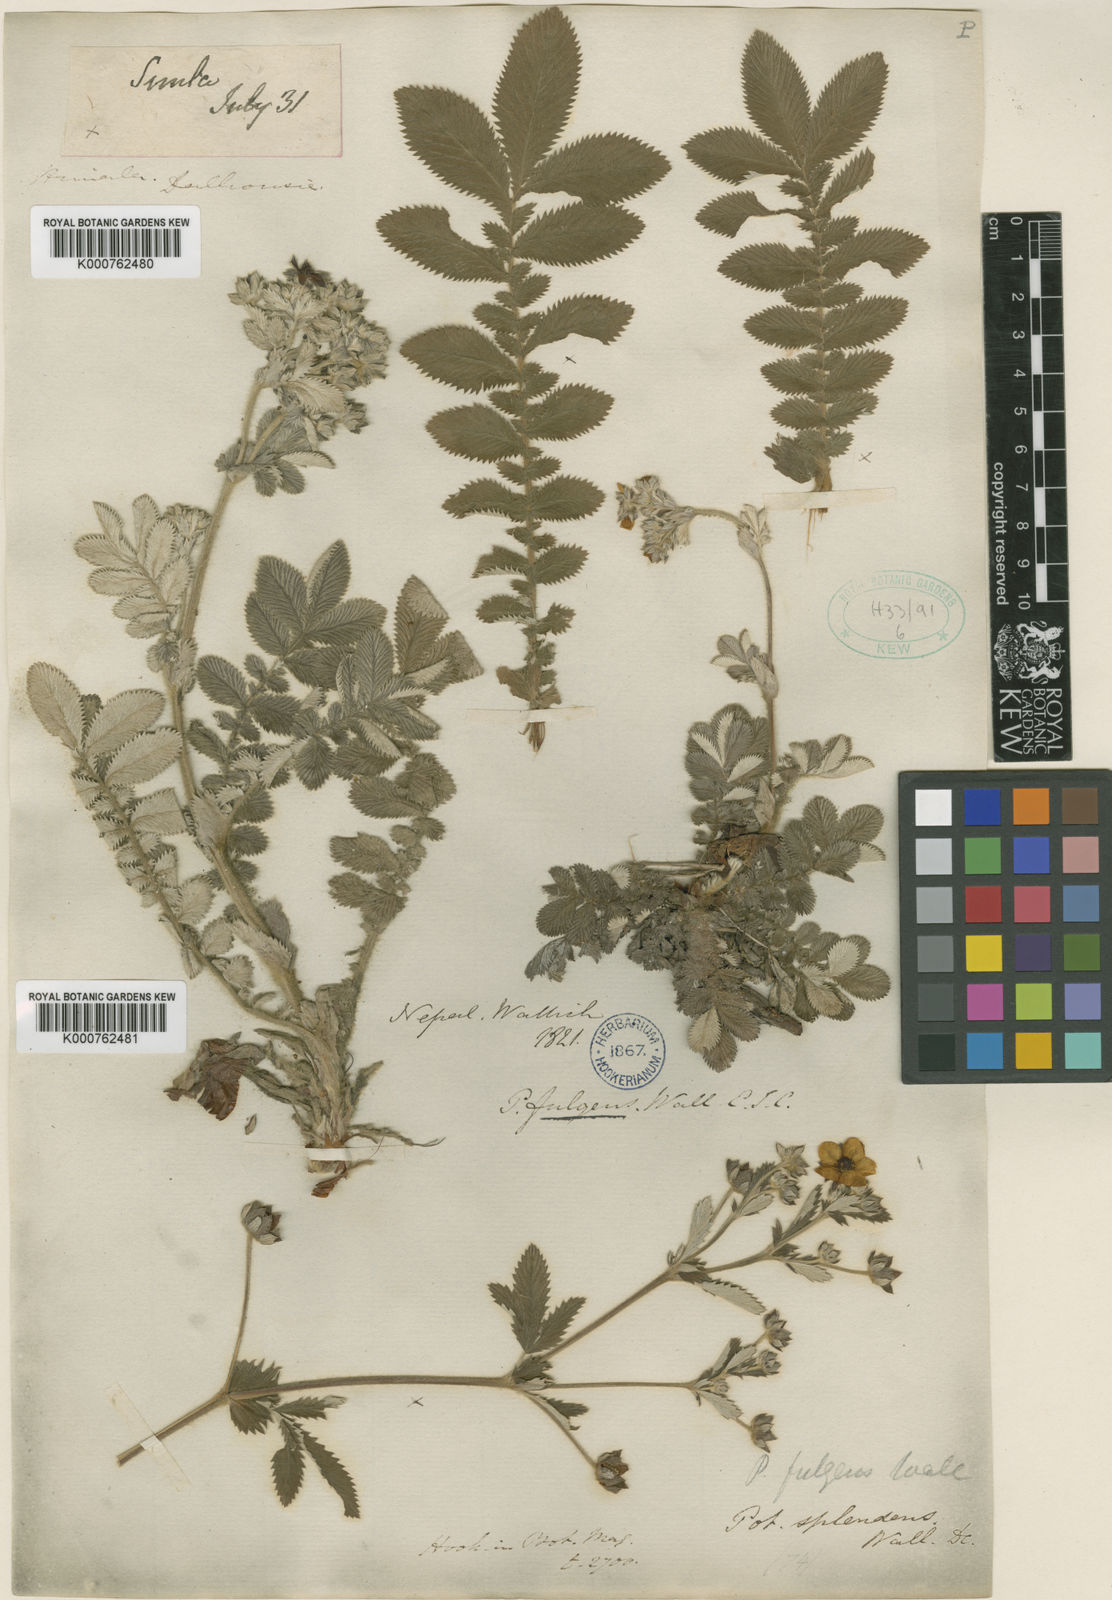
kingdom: Plantae
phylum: Tracheophyta
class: Magnoliopsida
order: Rosales
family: Rosaceae
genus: Potentilla
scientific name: Potentilla
